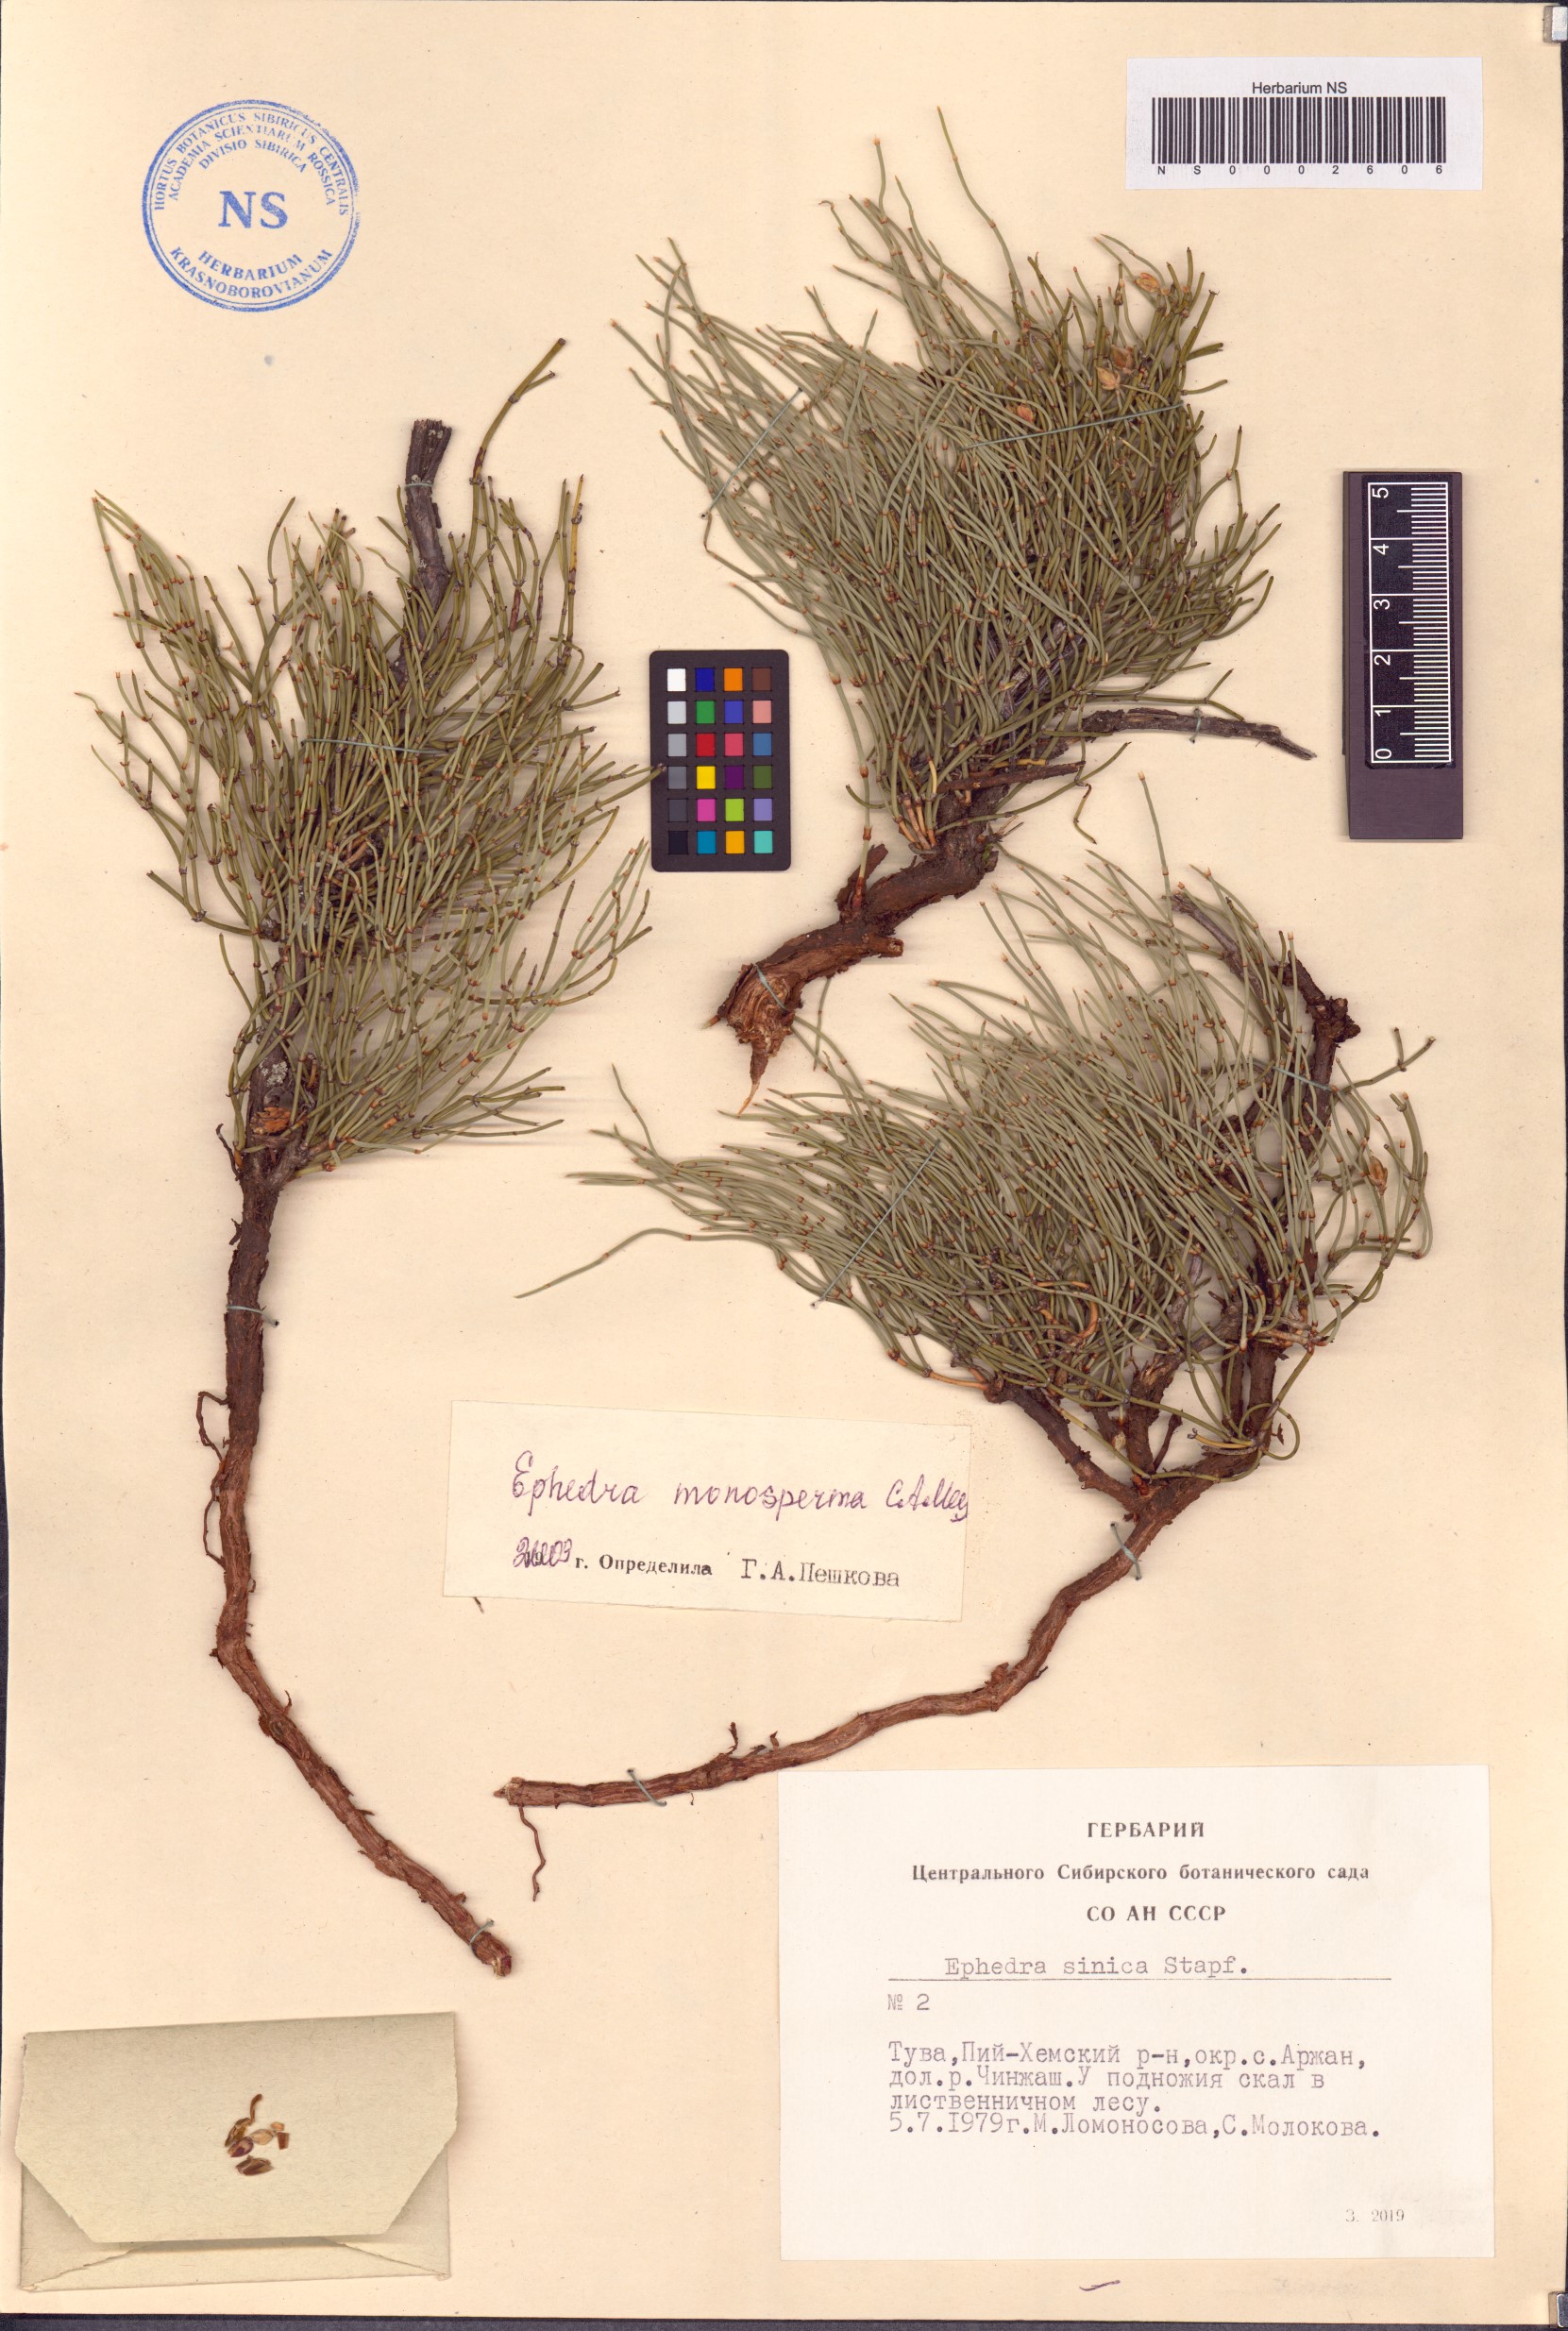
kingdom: Plantae
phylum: Tracheophyta
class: Gnetopsida
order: Ephedrales
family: Ephedraceae
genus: Ephedra
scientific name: Ephedra monosperma
